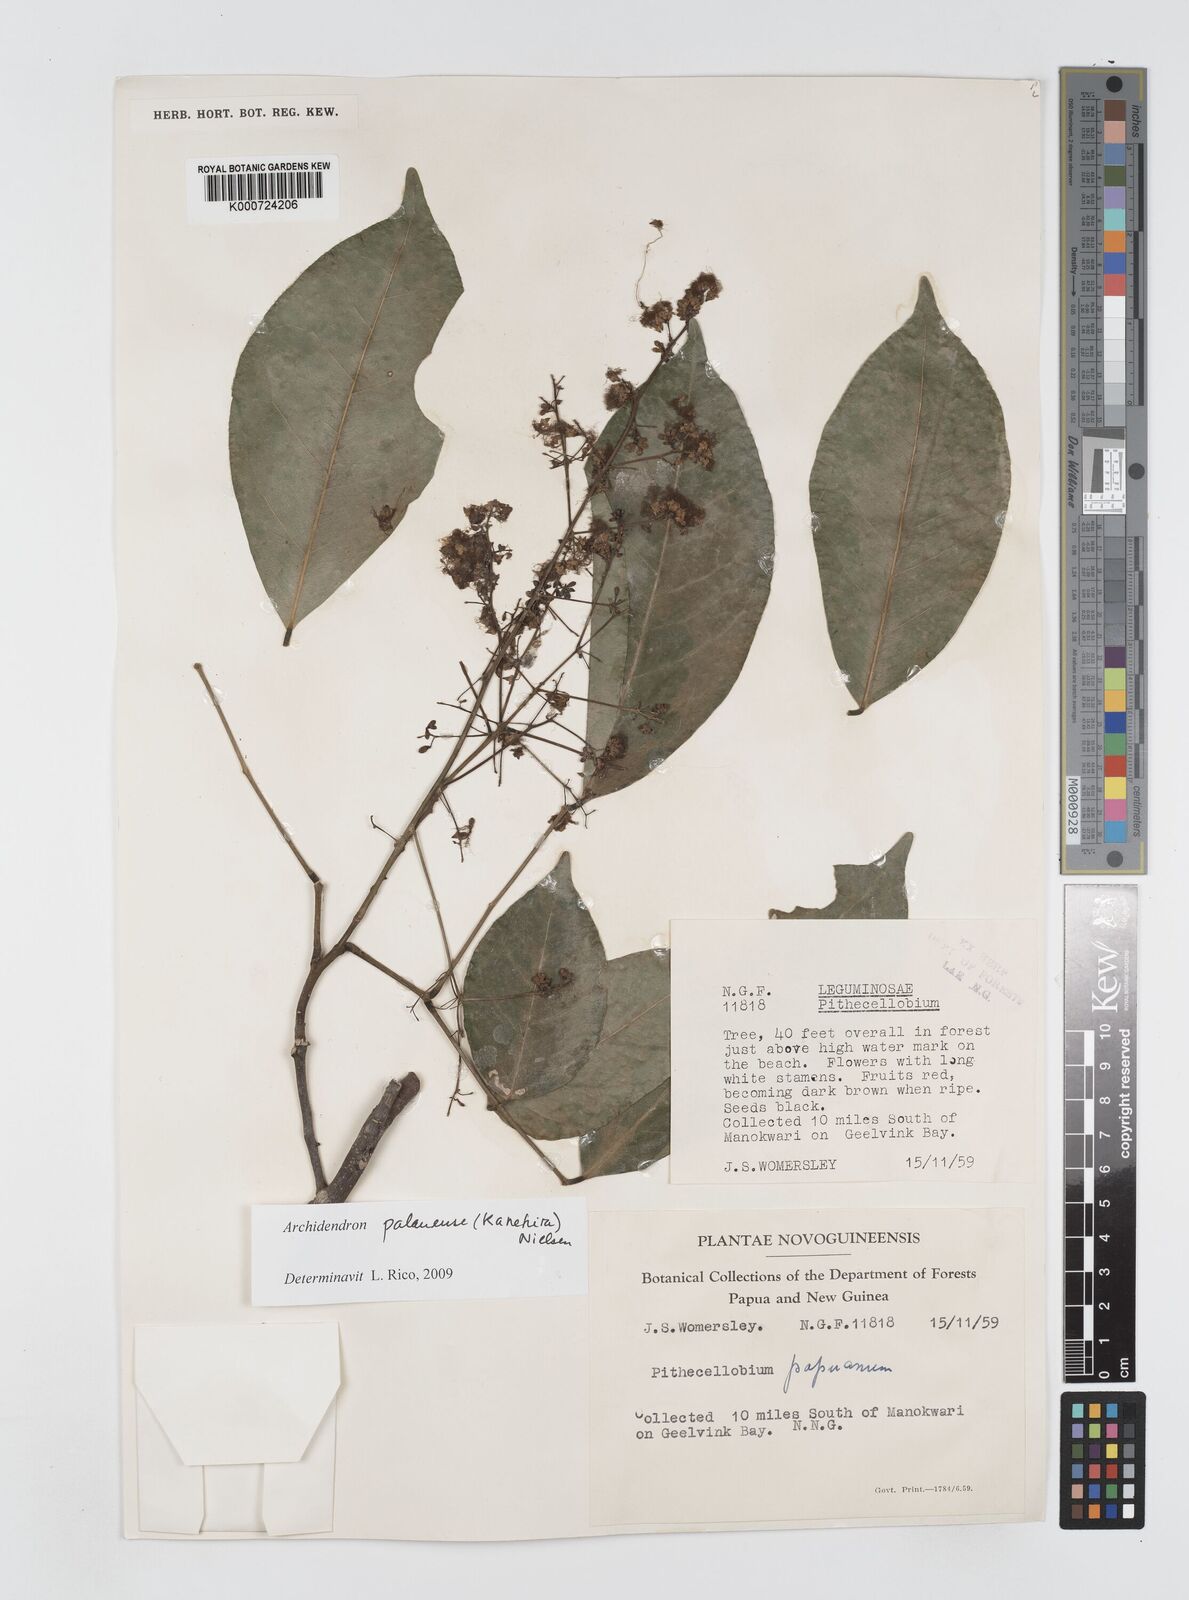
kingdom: Plantae
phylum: Tracheophyta
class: Magnoliopsida
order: Fabales
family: Fabaceae
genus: Archidendron
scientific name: Archidendron
